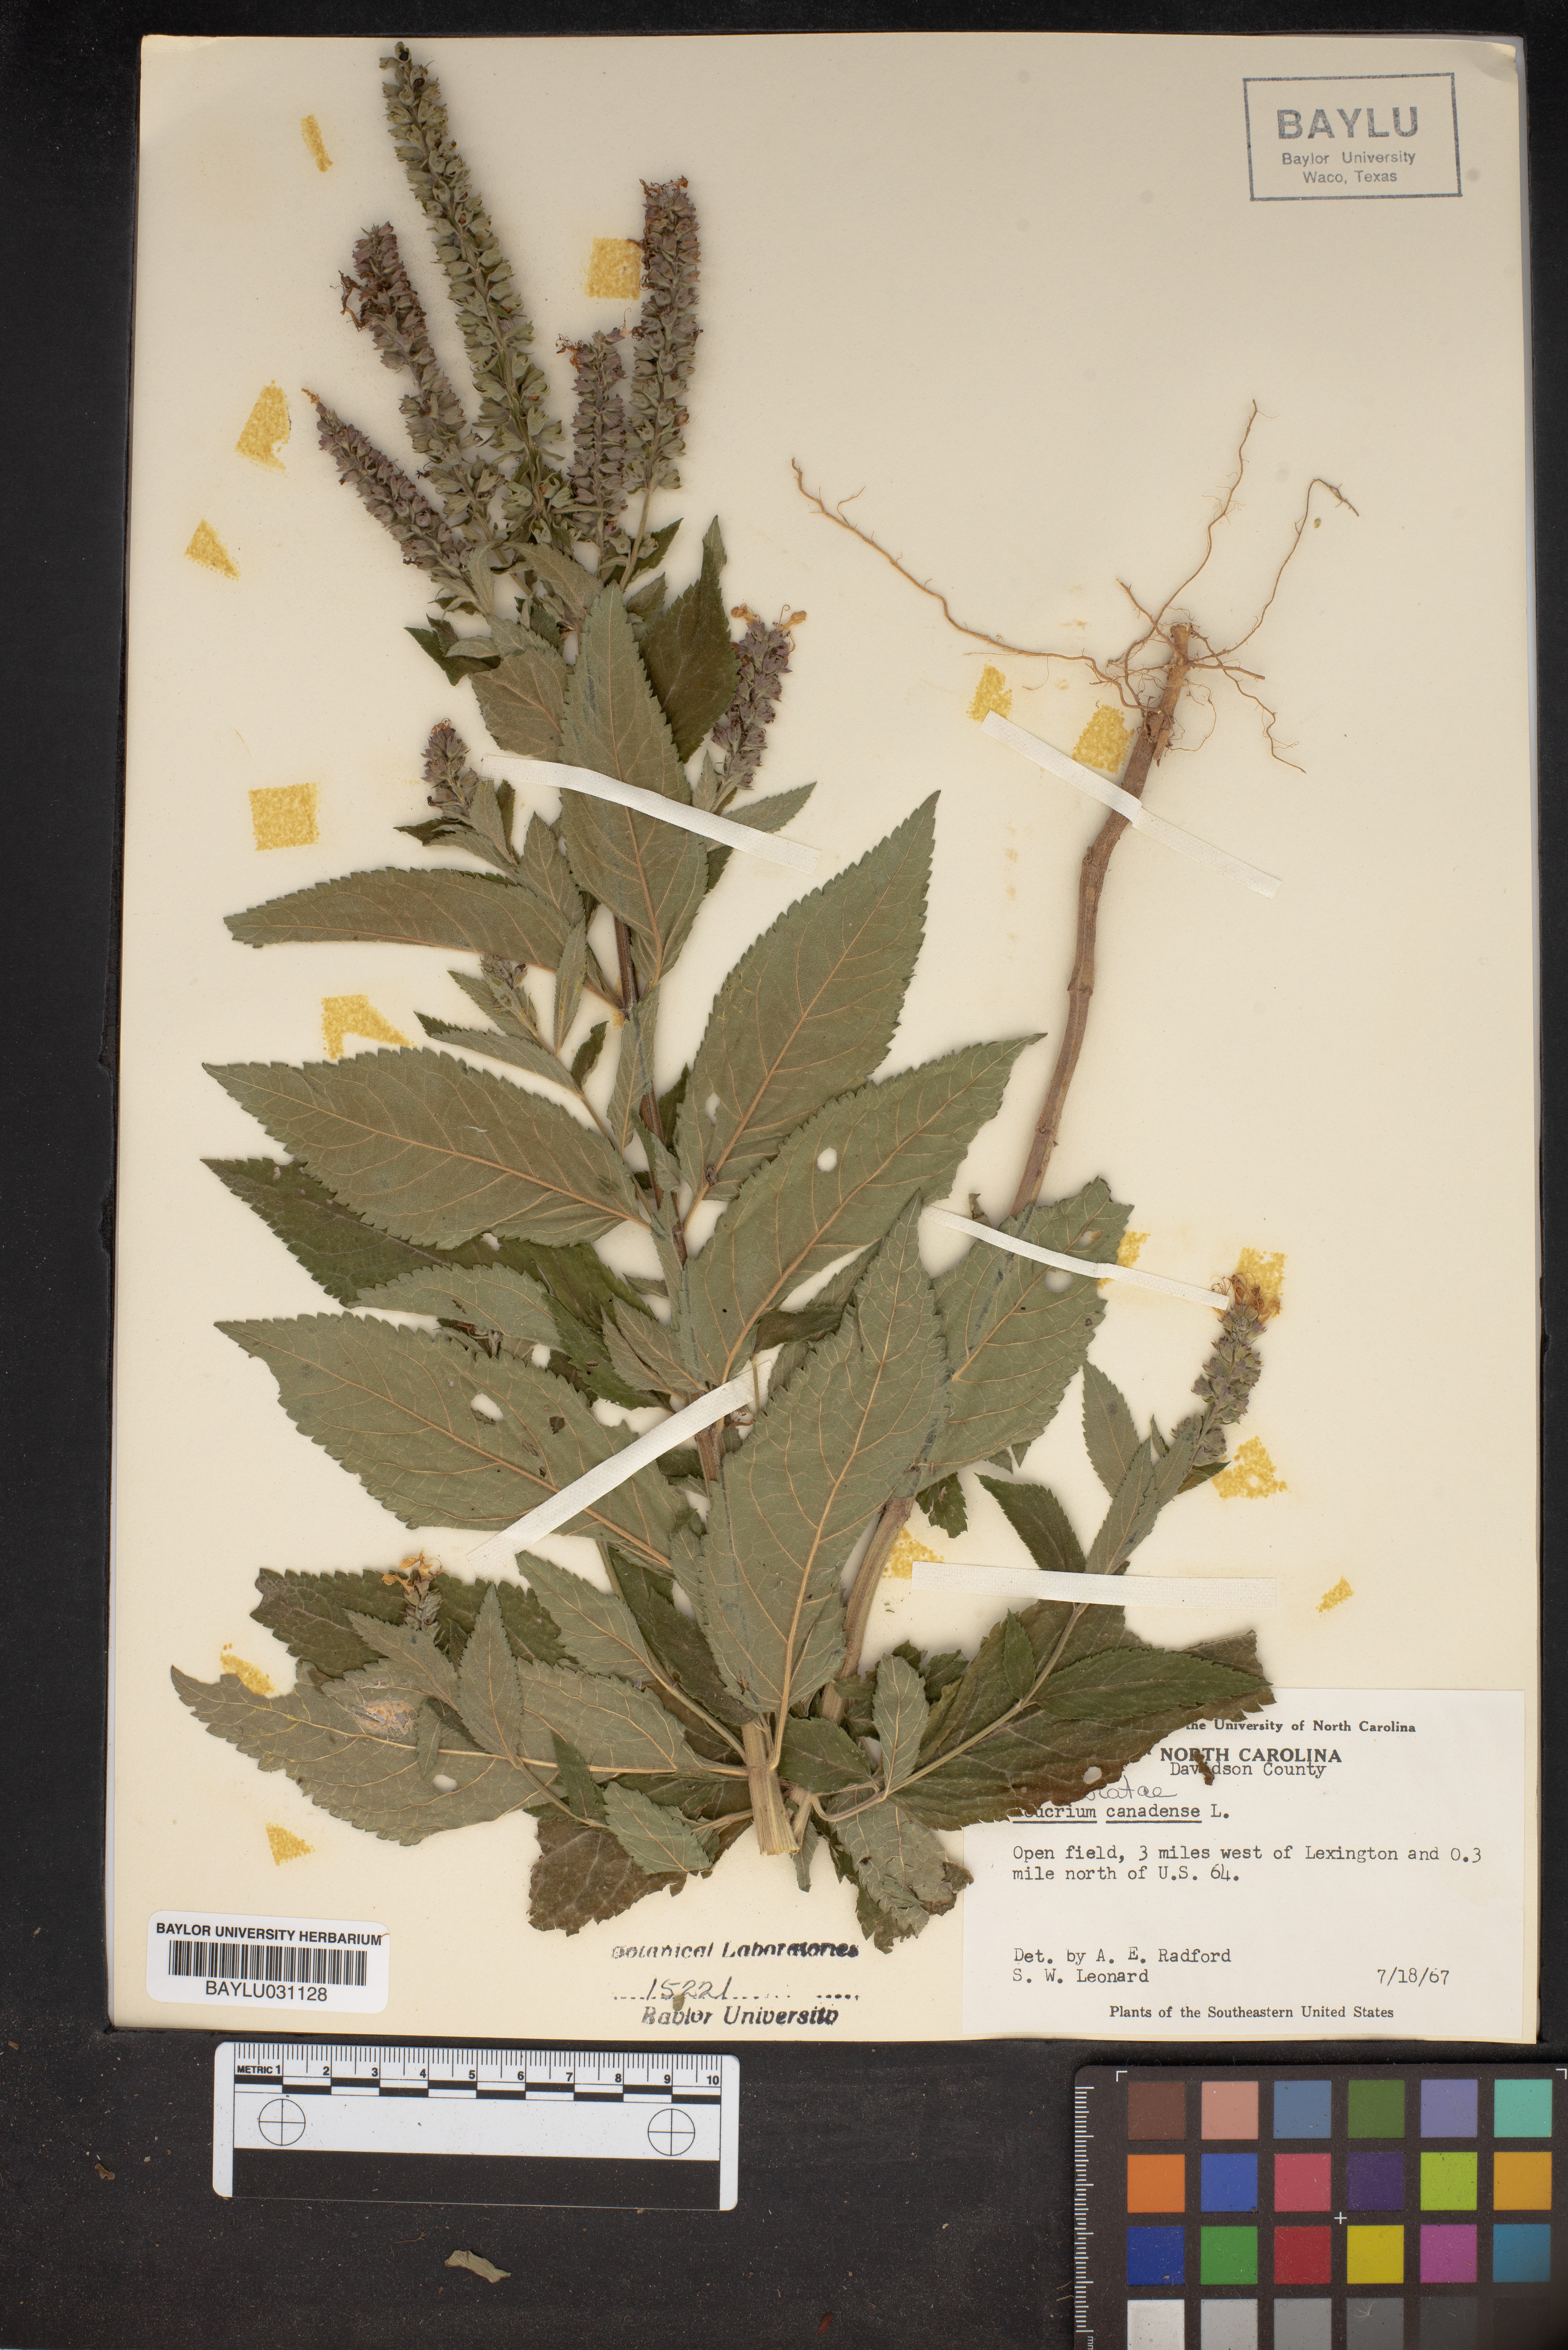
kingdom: Plantae
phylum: Tracheophyta
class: Magnoliopsida
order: Lamiales
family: Lamiaceae
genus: Teucrium
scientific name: Teucrium canadense
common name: American germander
